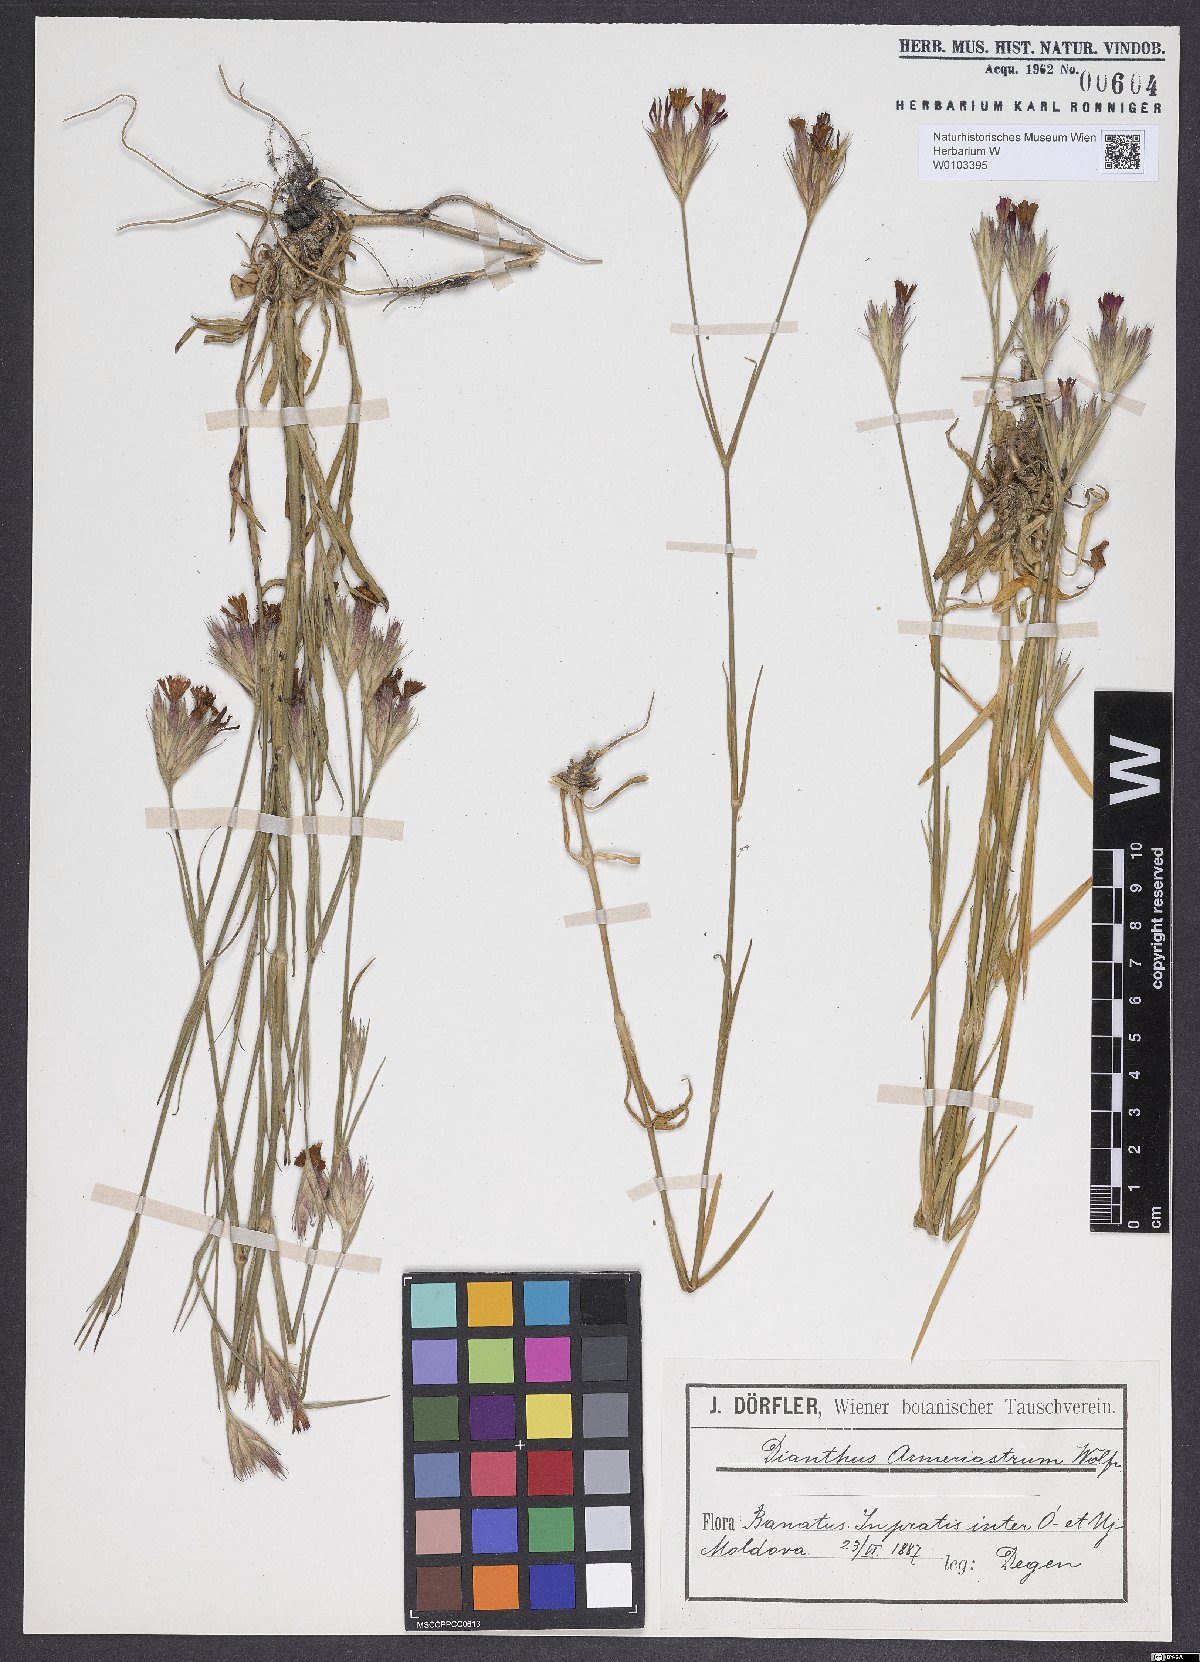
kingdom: Plantae
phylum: Tracheophyta
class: Magnoliopsida
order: Caryophyllales
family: Caryophyllaceae
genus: Dianthus
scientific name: Dianthus corymbosus
